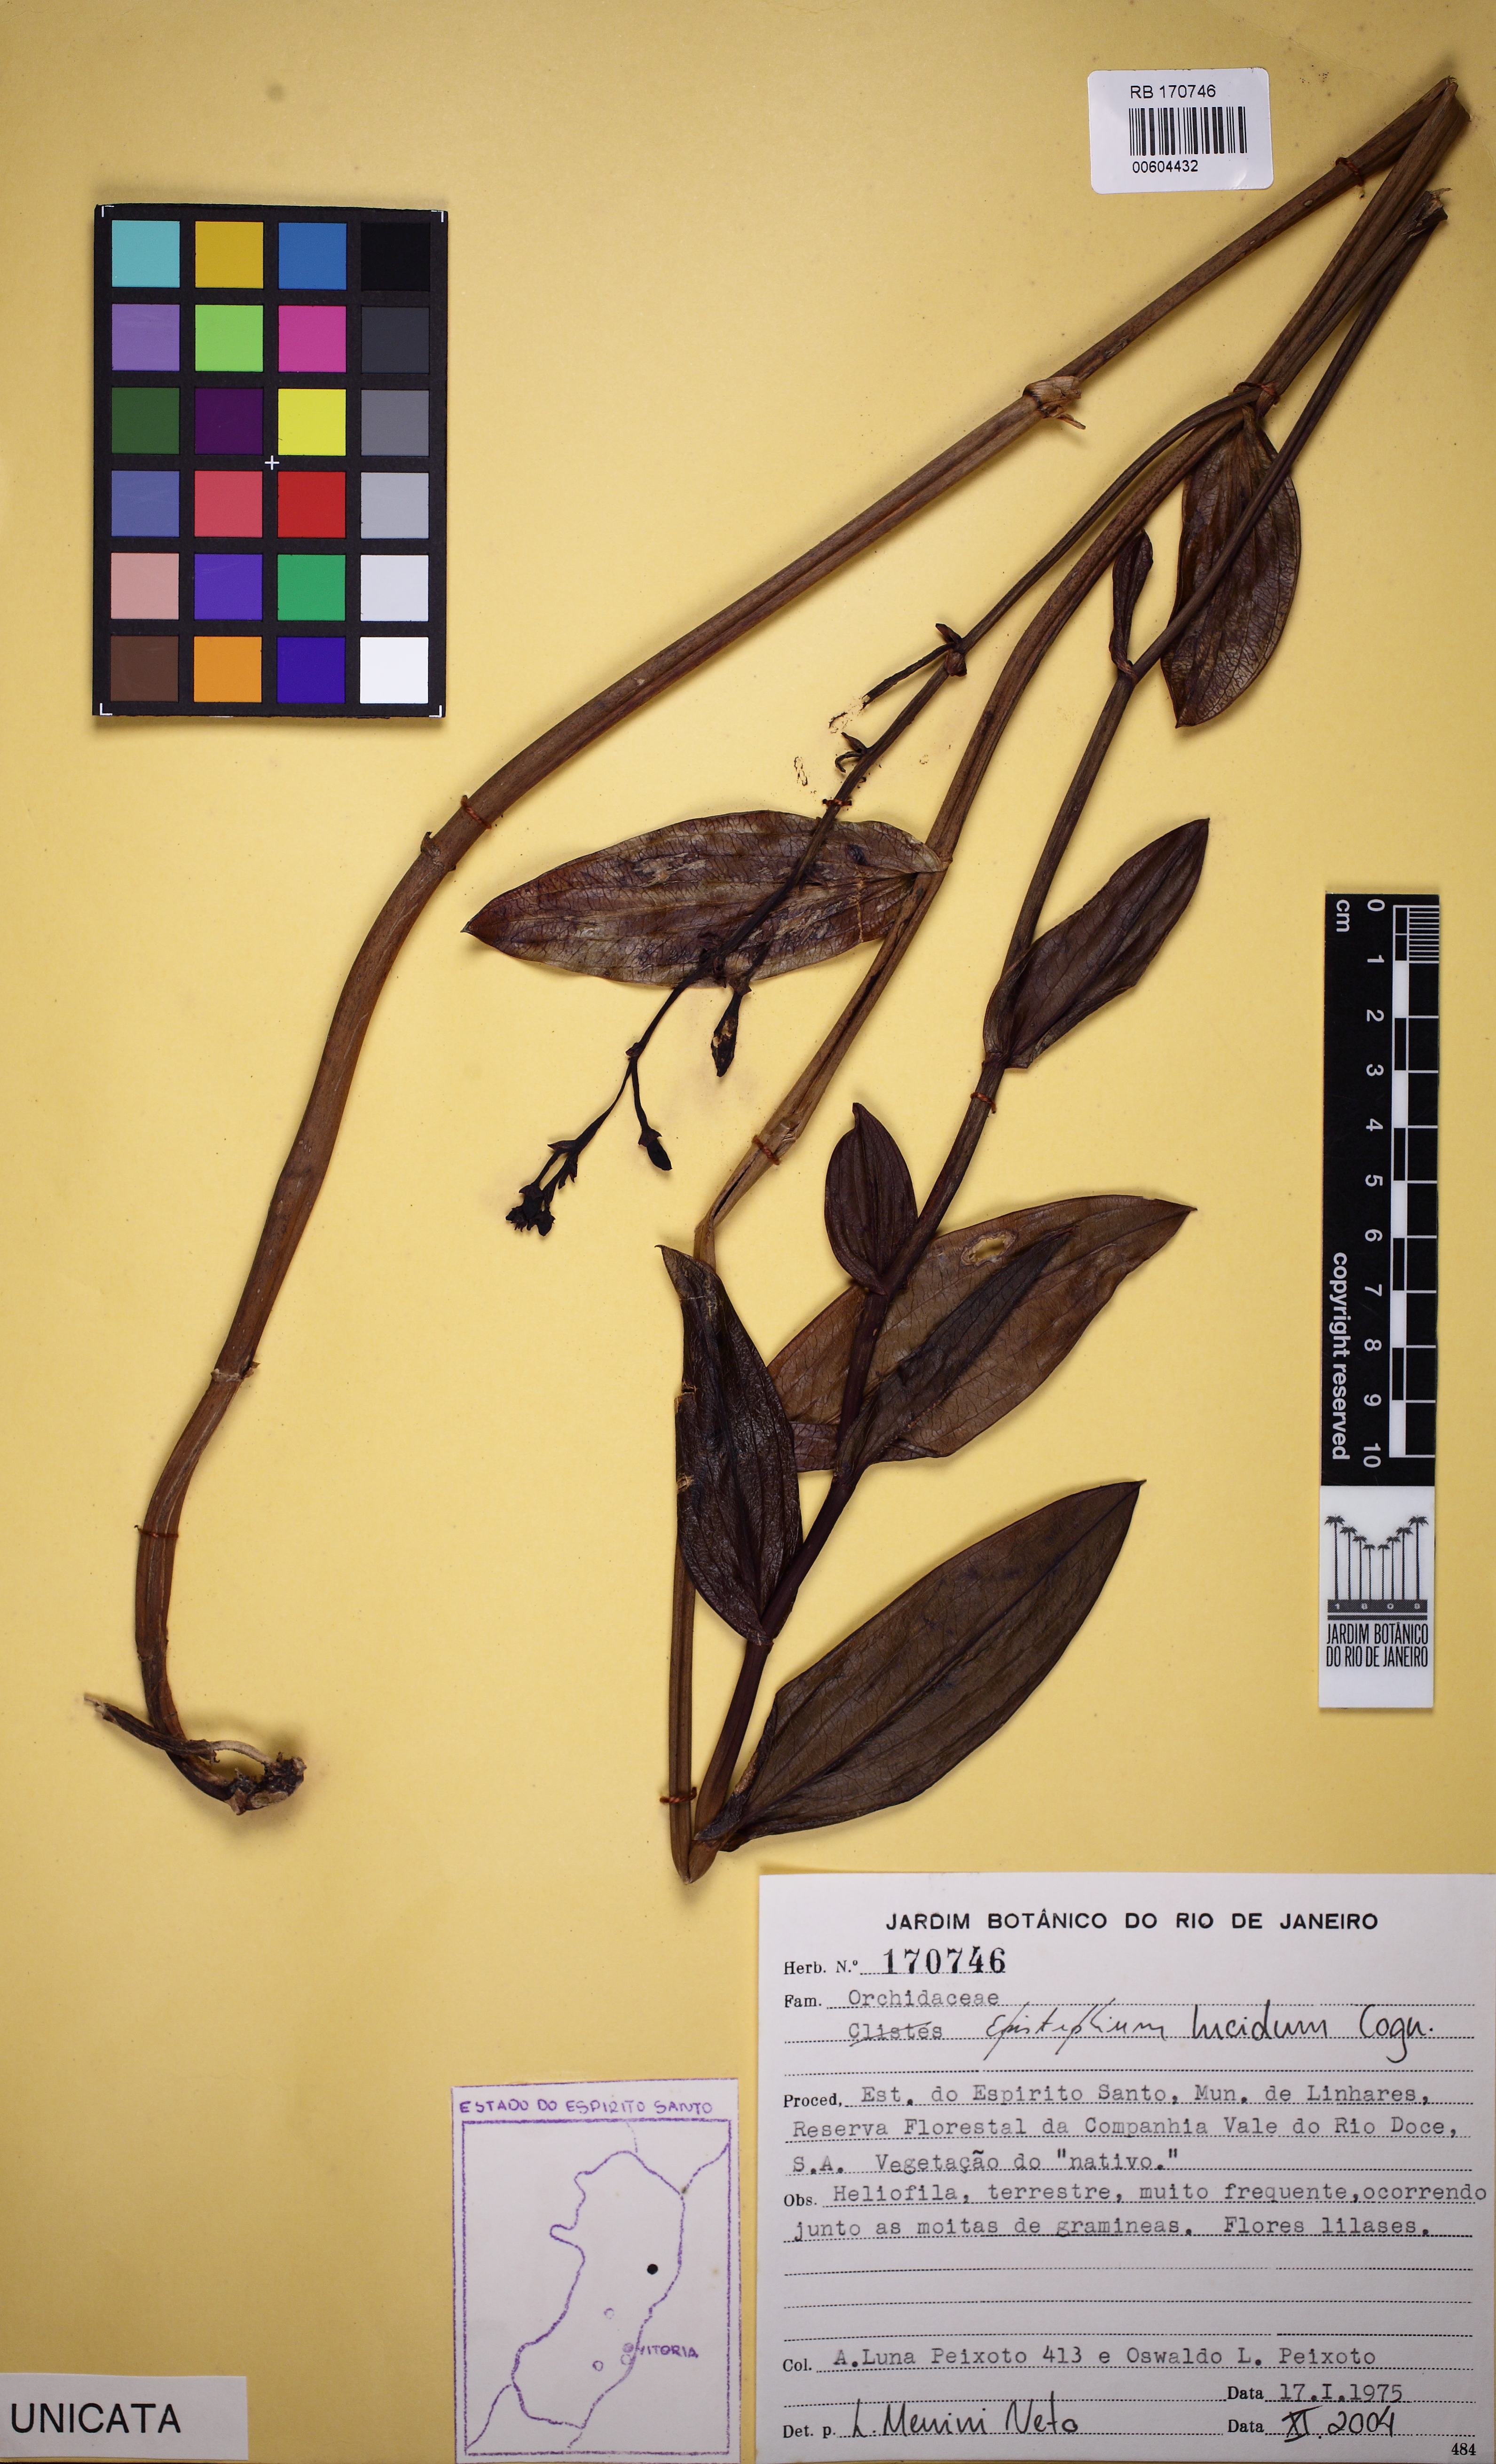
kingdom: Plantae
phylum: Tracheophyta
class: Liliopsida
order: Asparagales
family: Orchidaceae
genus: Epistephium
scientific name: Epistephium williamsii
